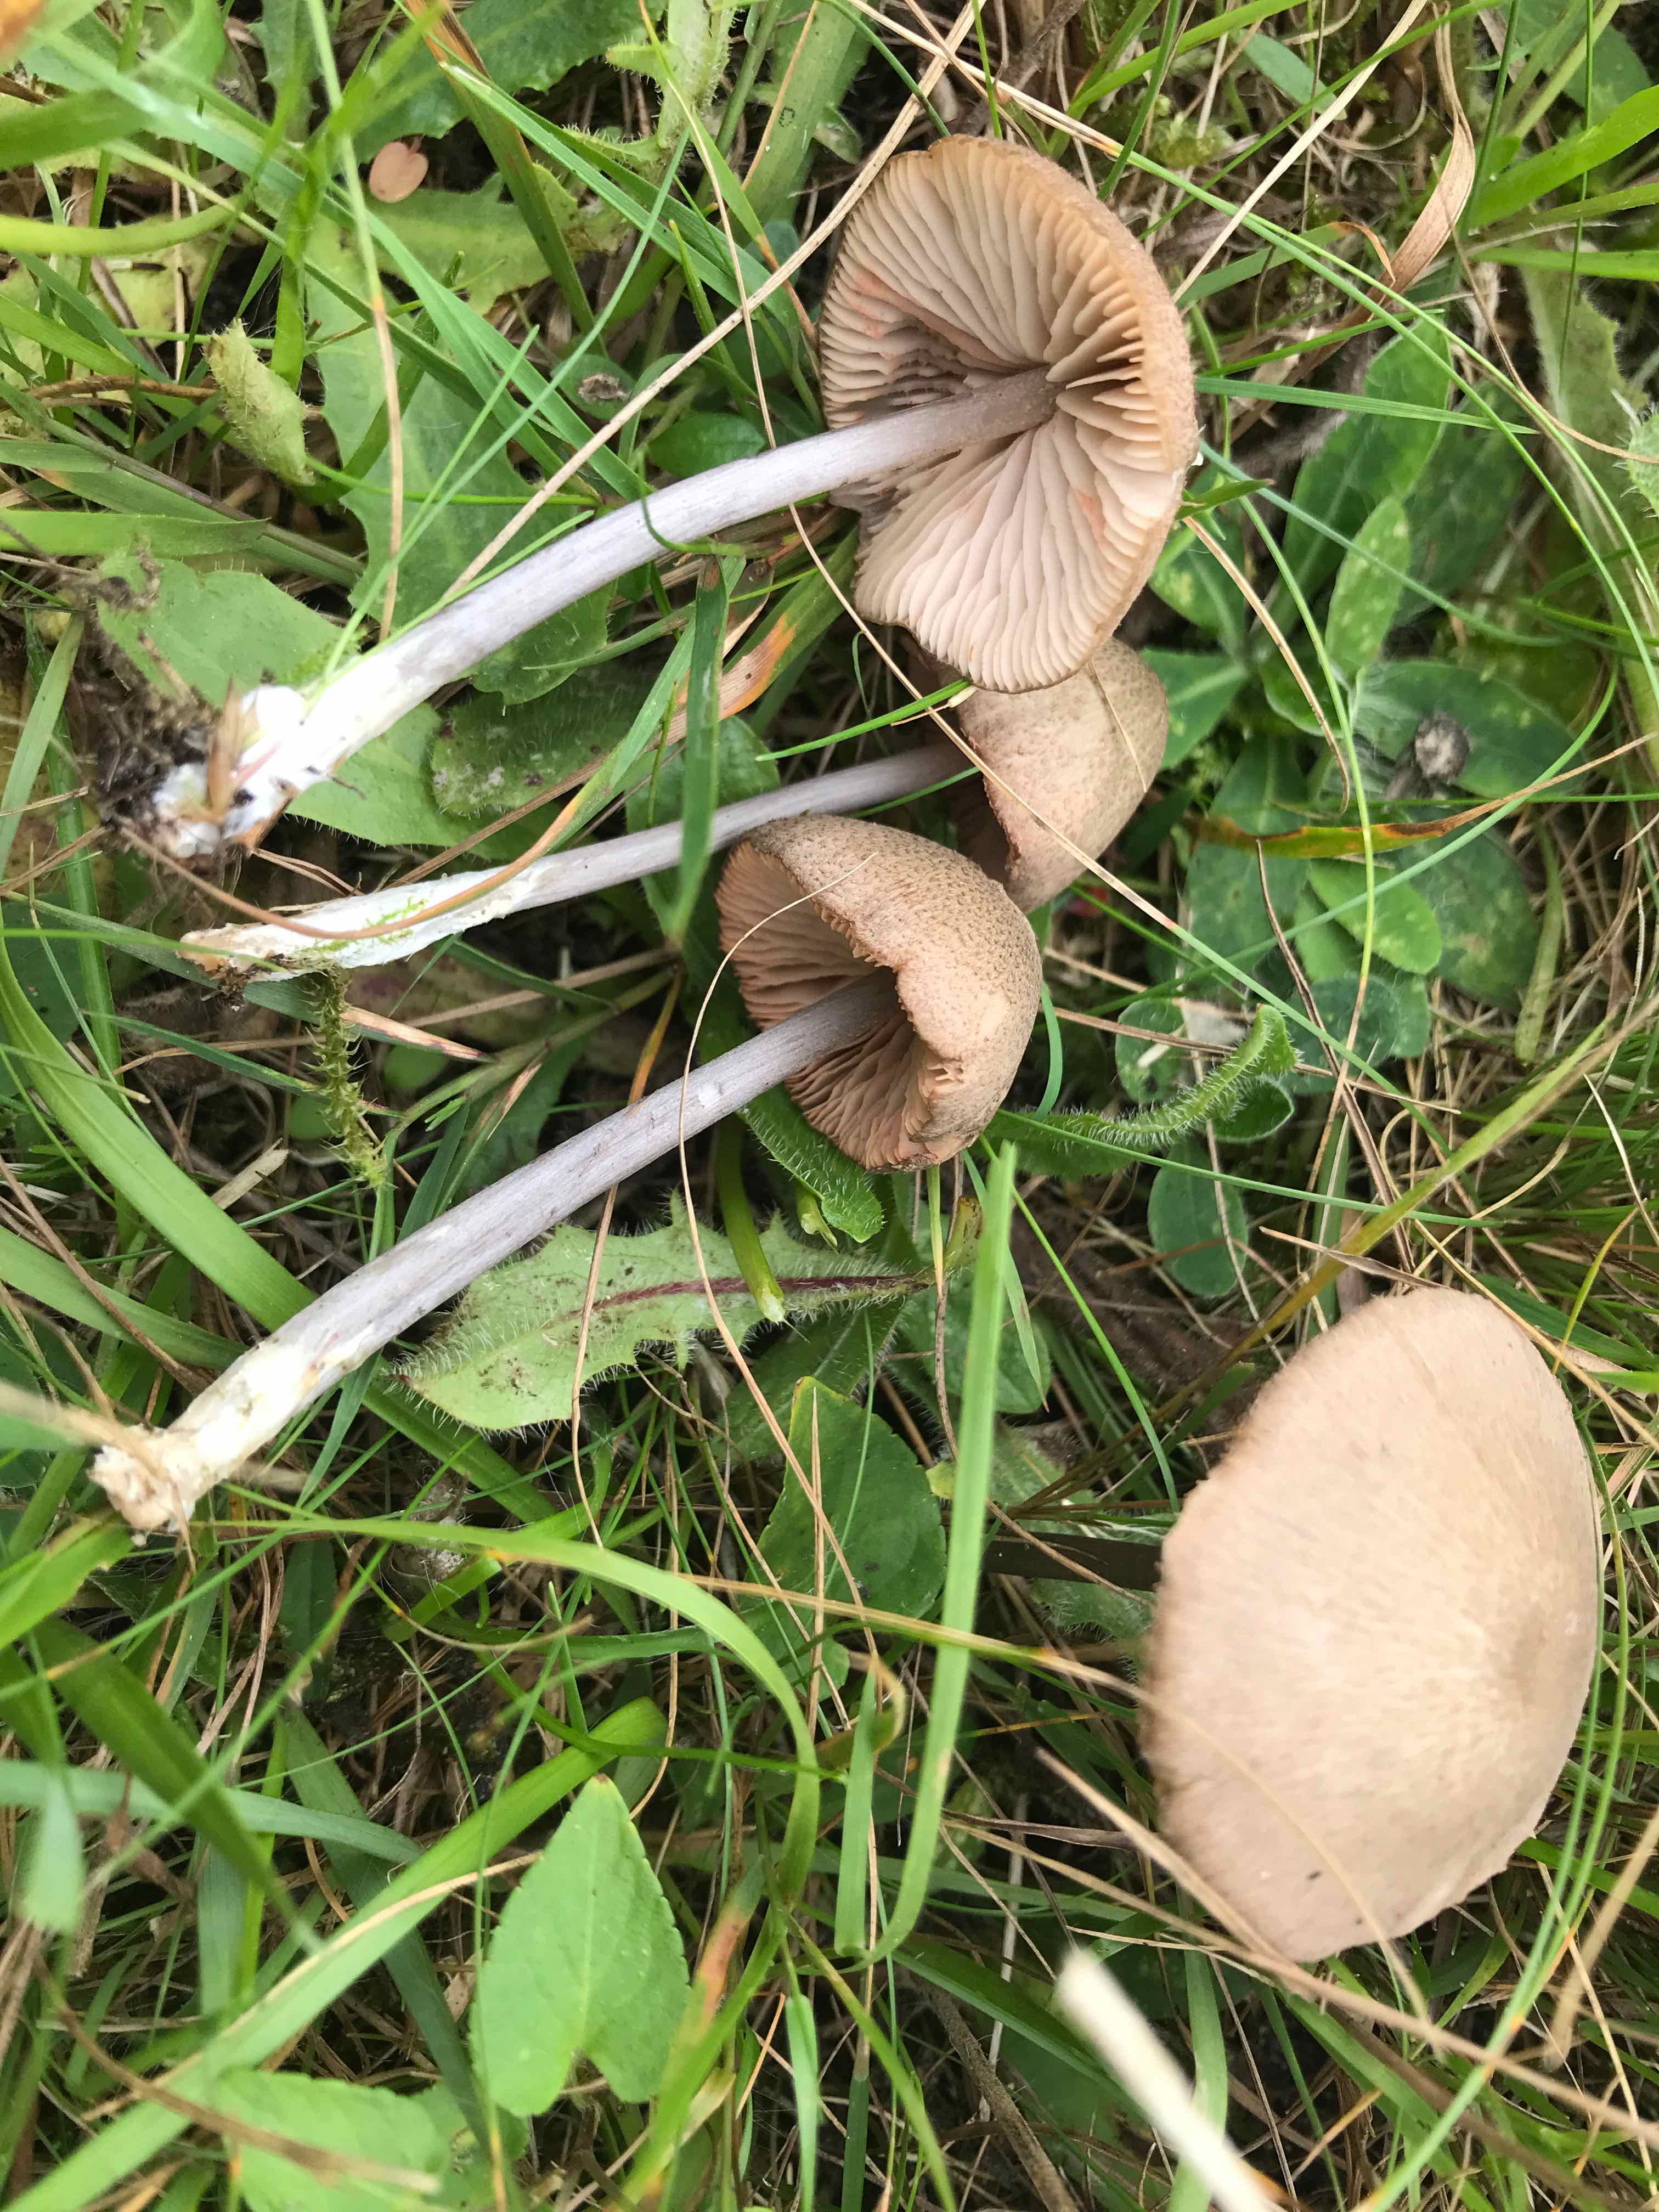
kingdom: Fungi
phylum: Basidiomycota
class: Agaricomycetes
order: Agaricales
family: Entolomataceae
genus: Entoloma
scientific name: Entoloma griseocyaneum
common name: gråblå rødblad
